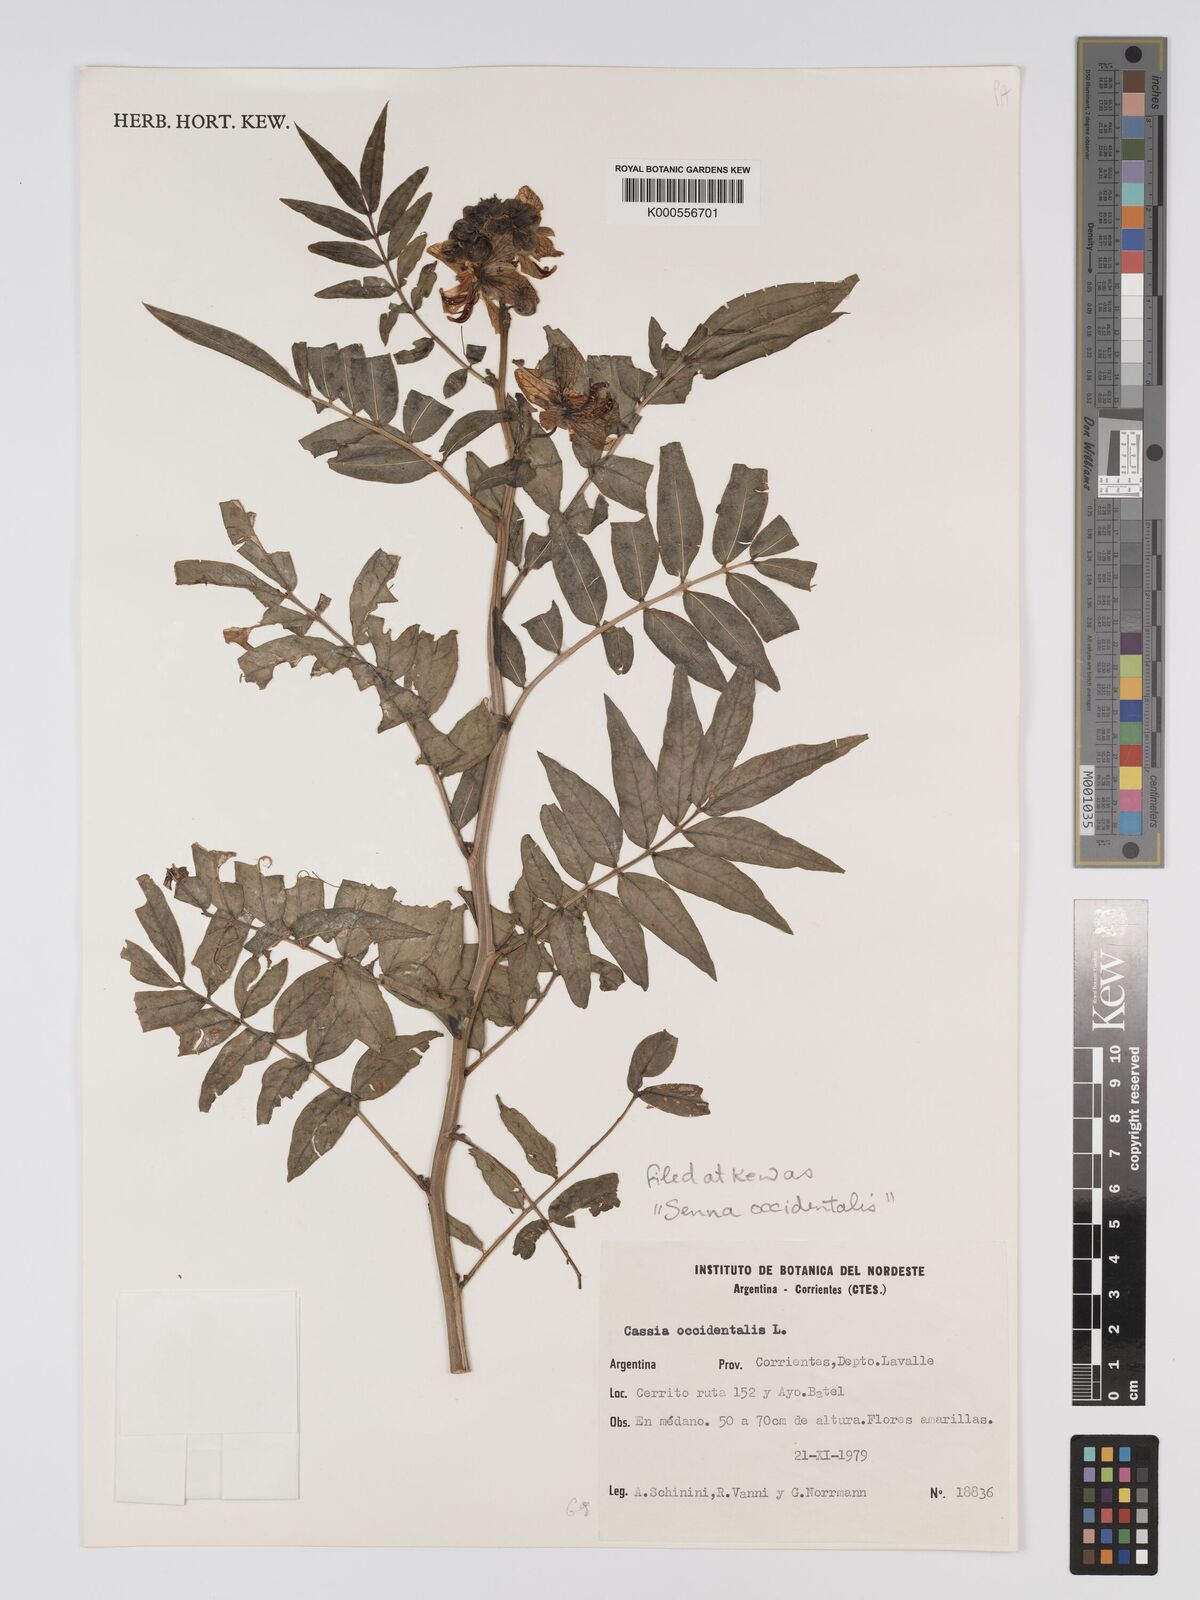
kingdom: Plantae
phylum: Tracheophyta
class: Magnoliopsida
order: Fabales
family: Fabaceae
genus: Senna
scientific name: Senna occidentalis
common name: Septicweed
